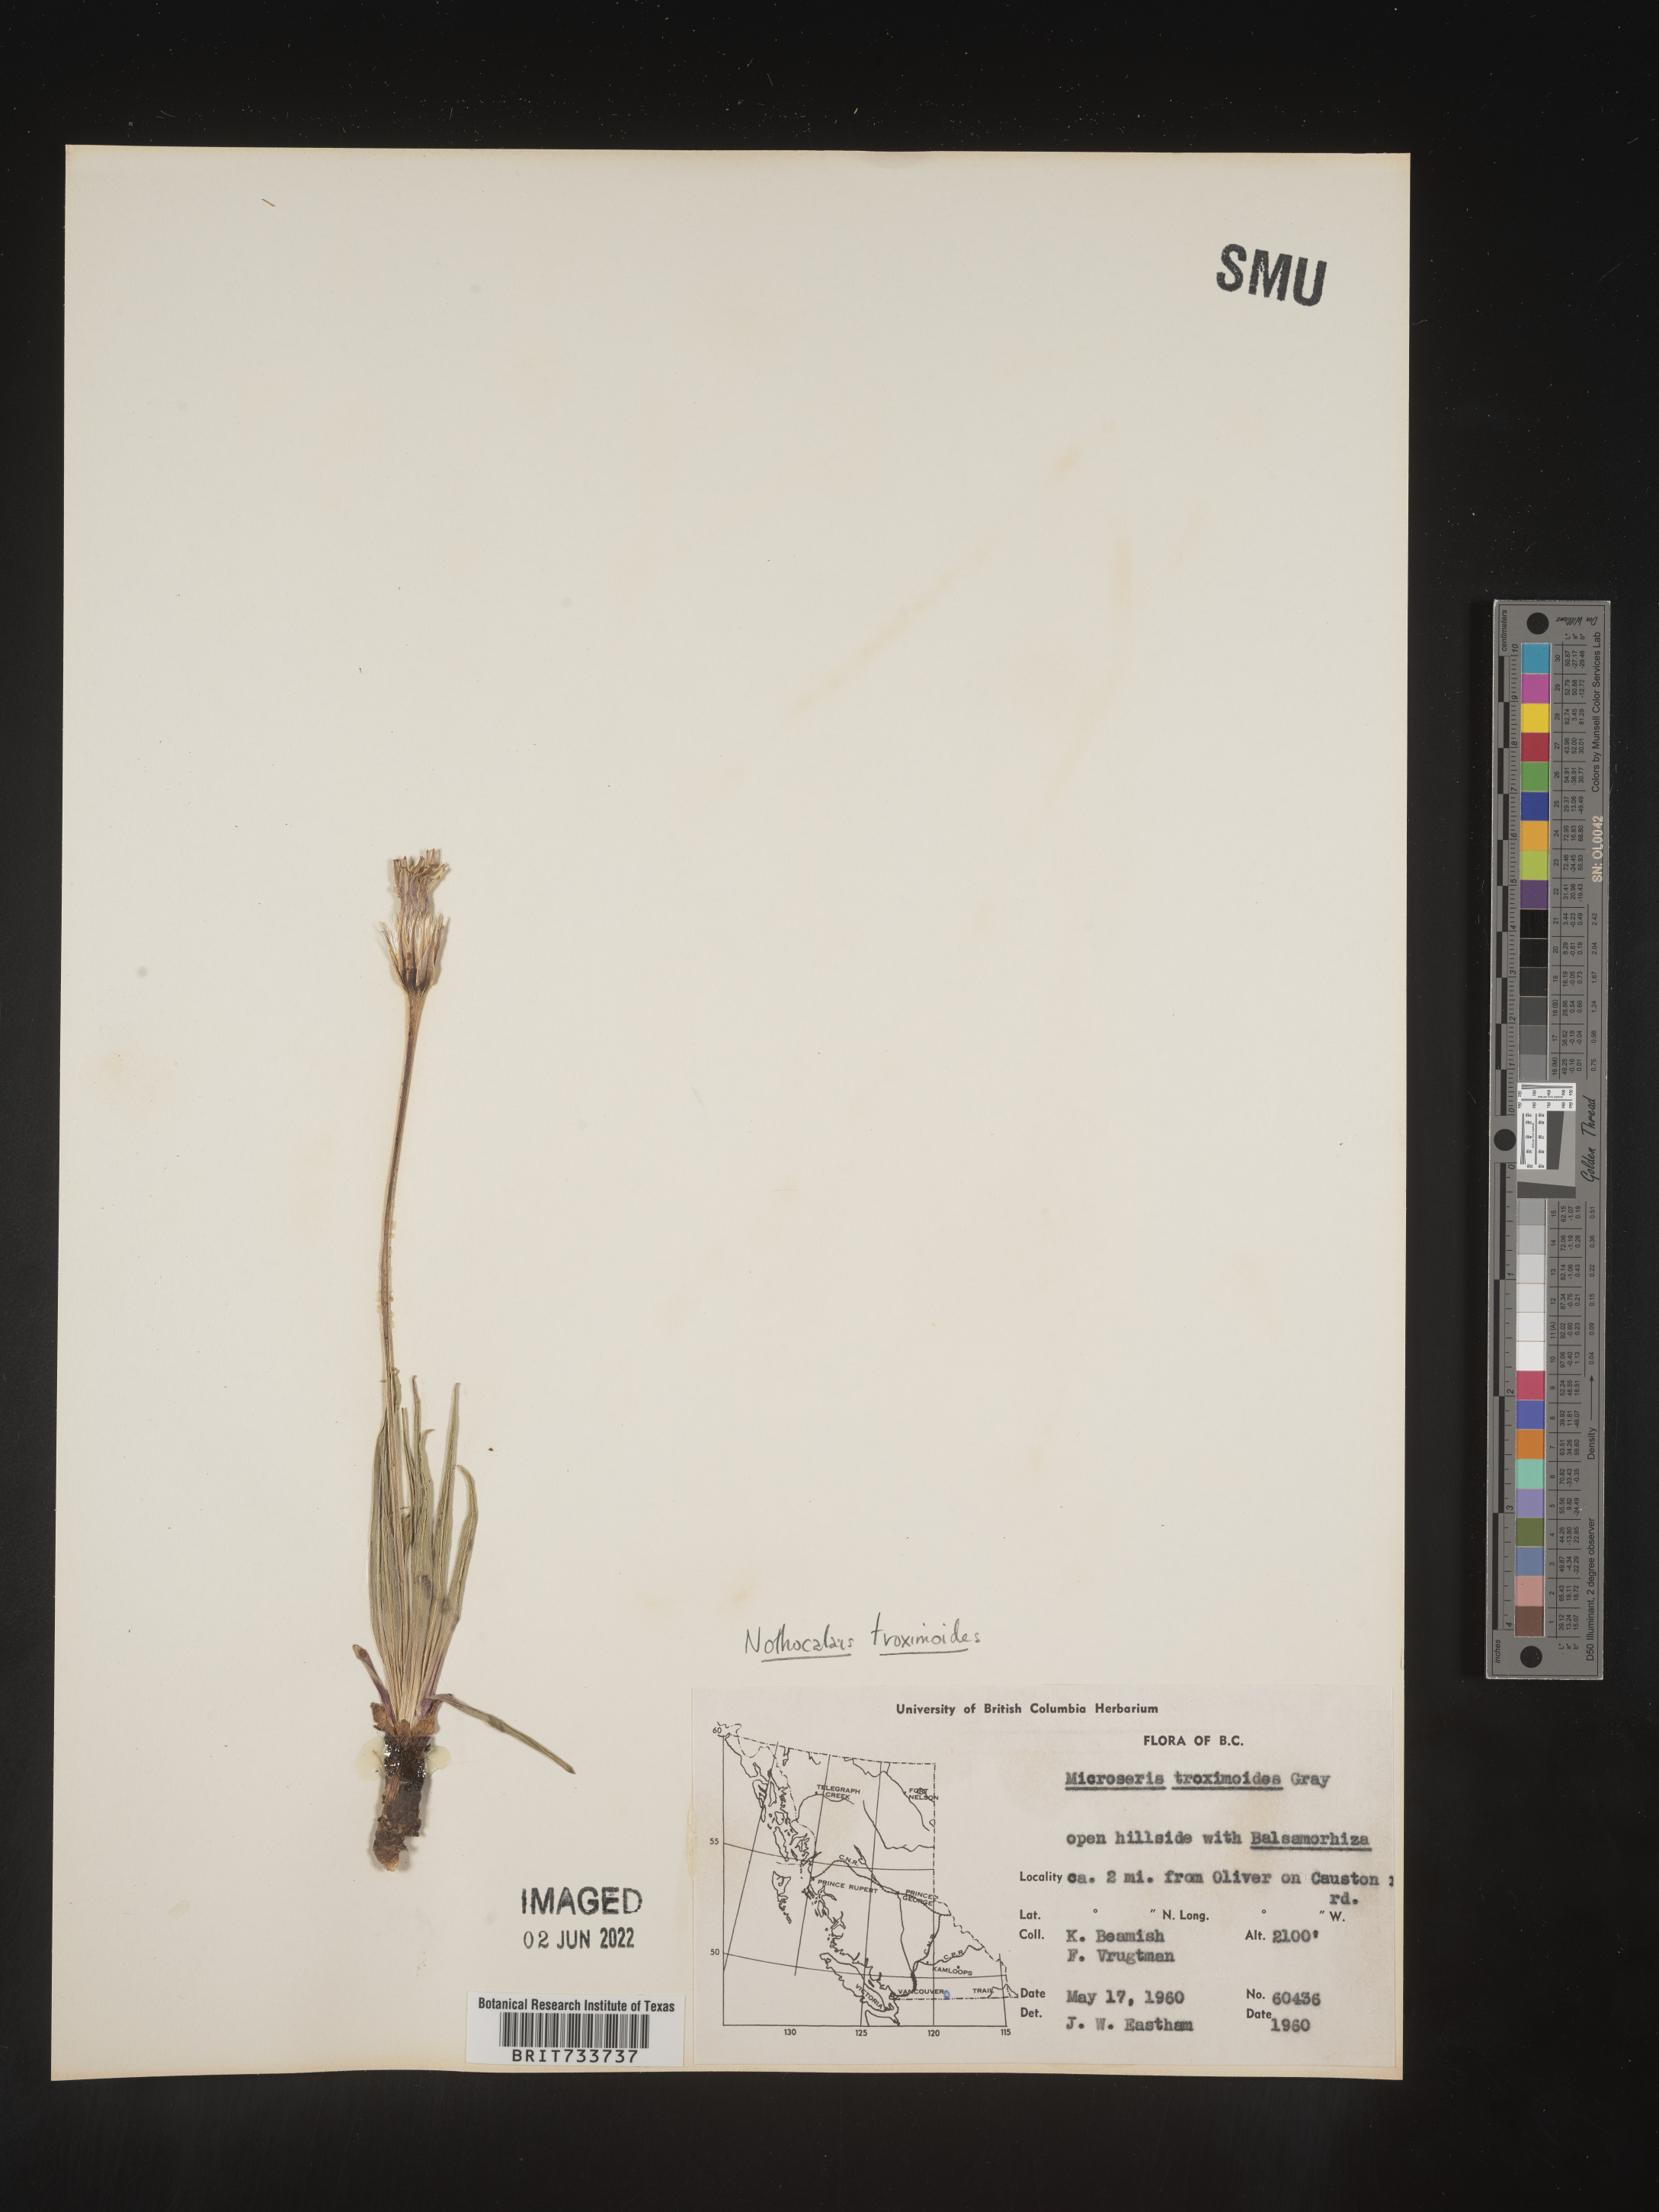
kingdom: Plantae
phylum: Tracheophyta
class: Magnoliopsida
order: Asterales
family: Asteraceae
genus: Microseris
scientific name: Microseris
